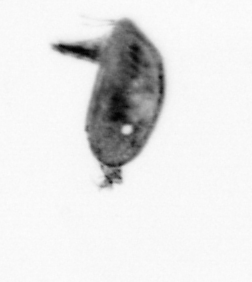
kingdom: Animalia
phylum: Arthropoda
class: Maxillopoda
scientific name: Maxillopoda
